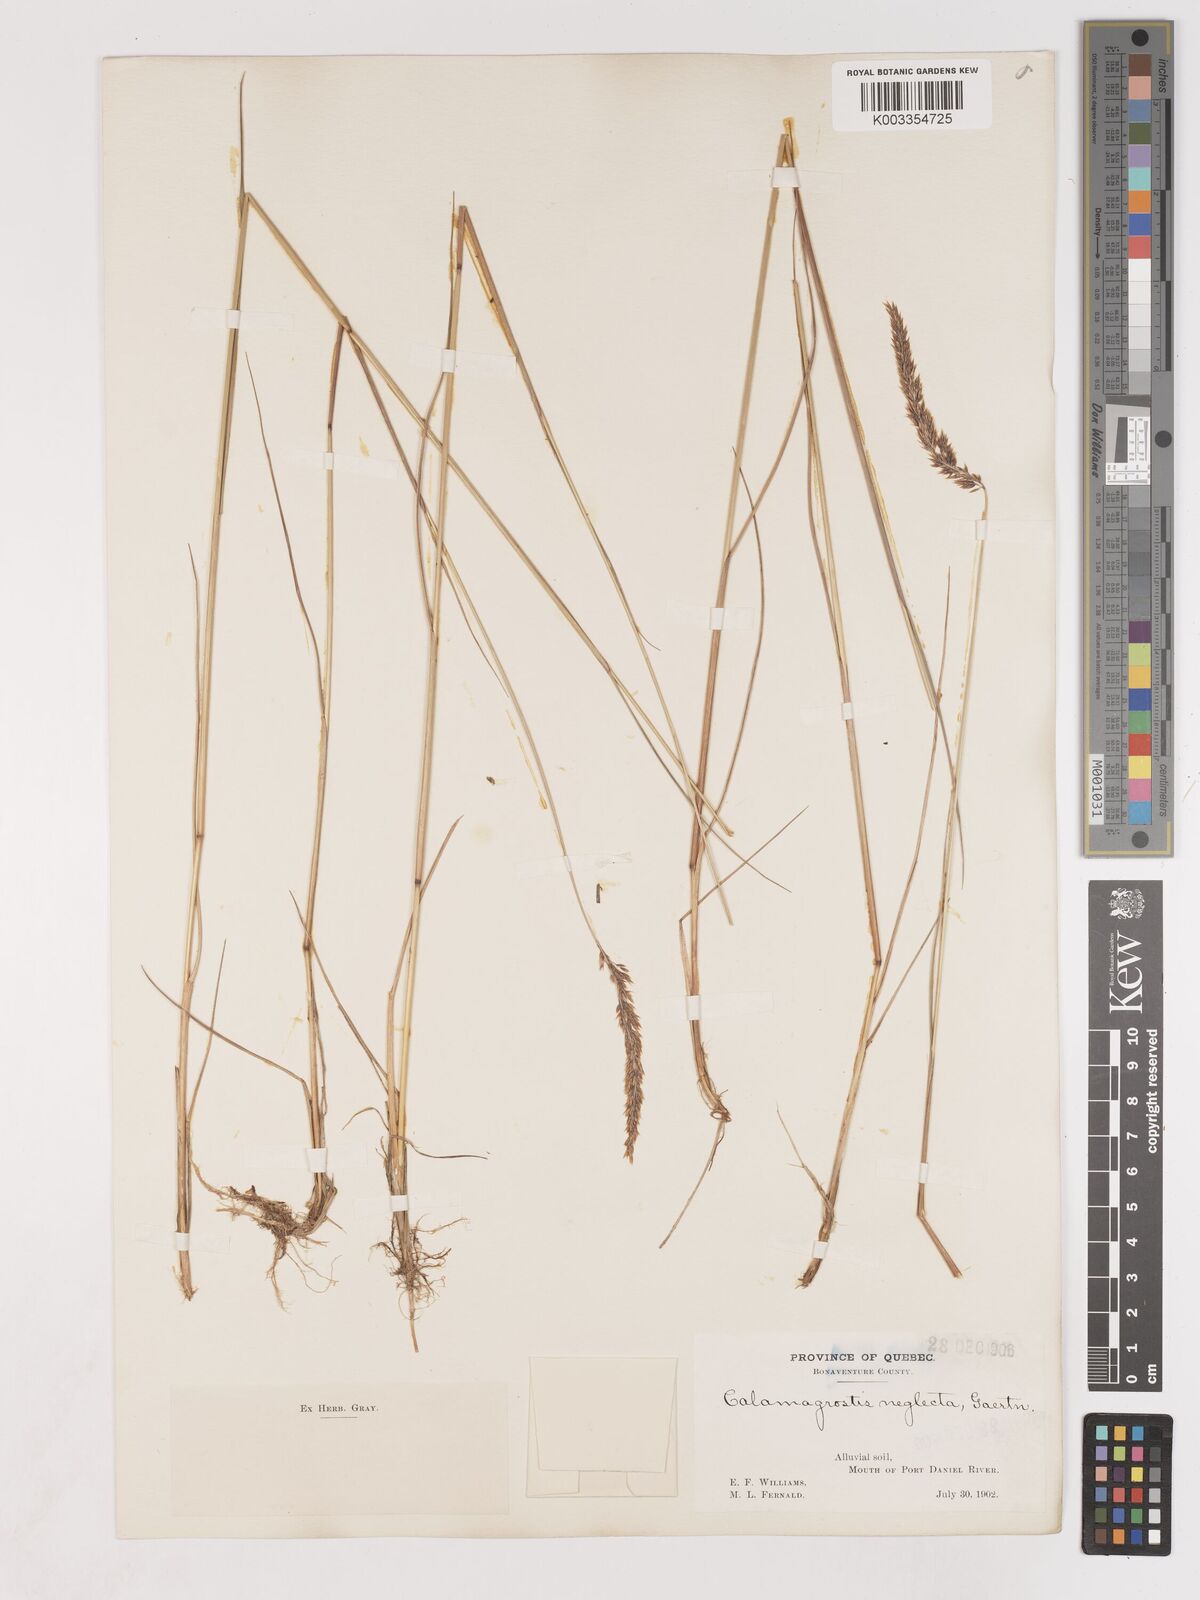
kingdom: Plantae
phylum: Tracheophyta
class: Liliopsida
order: Poales
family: Poaceae
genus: Cinnagrostis
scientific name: Cinnagrostis recta
